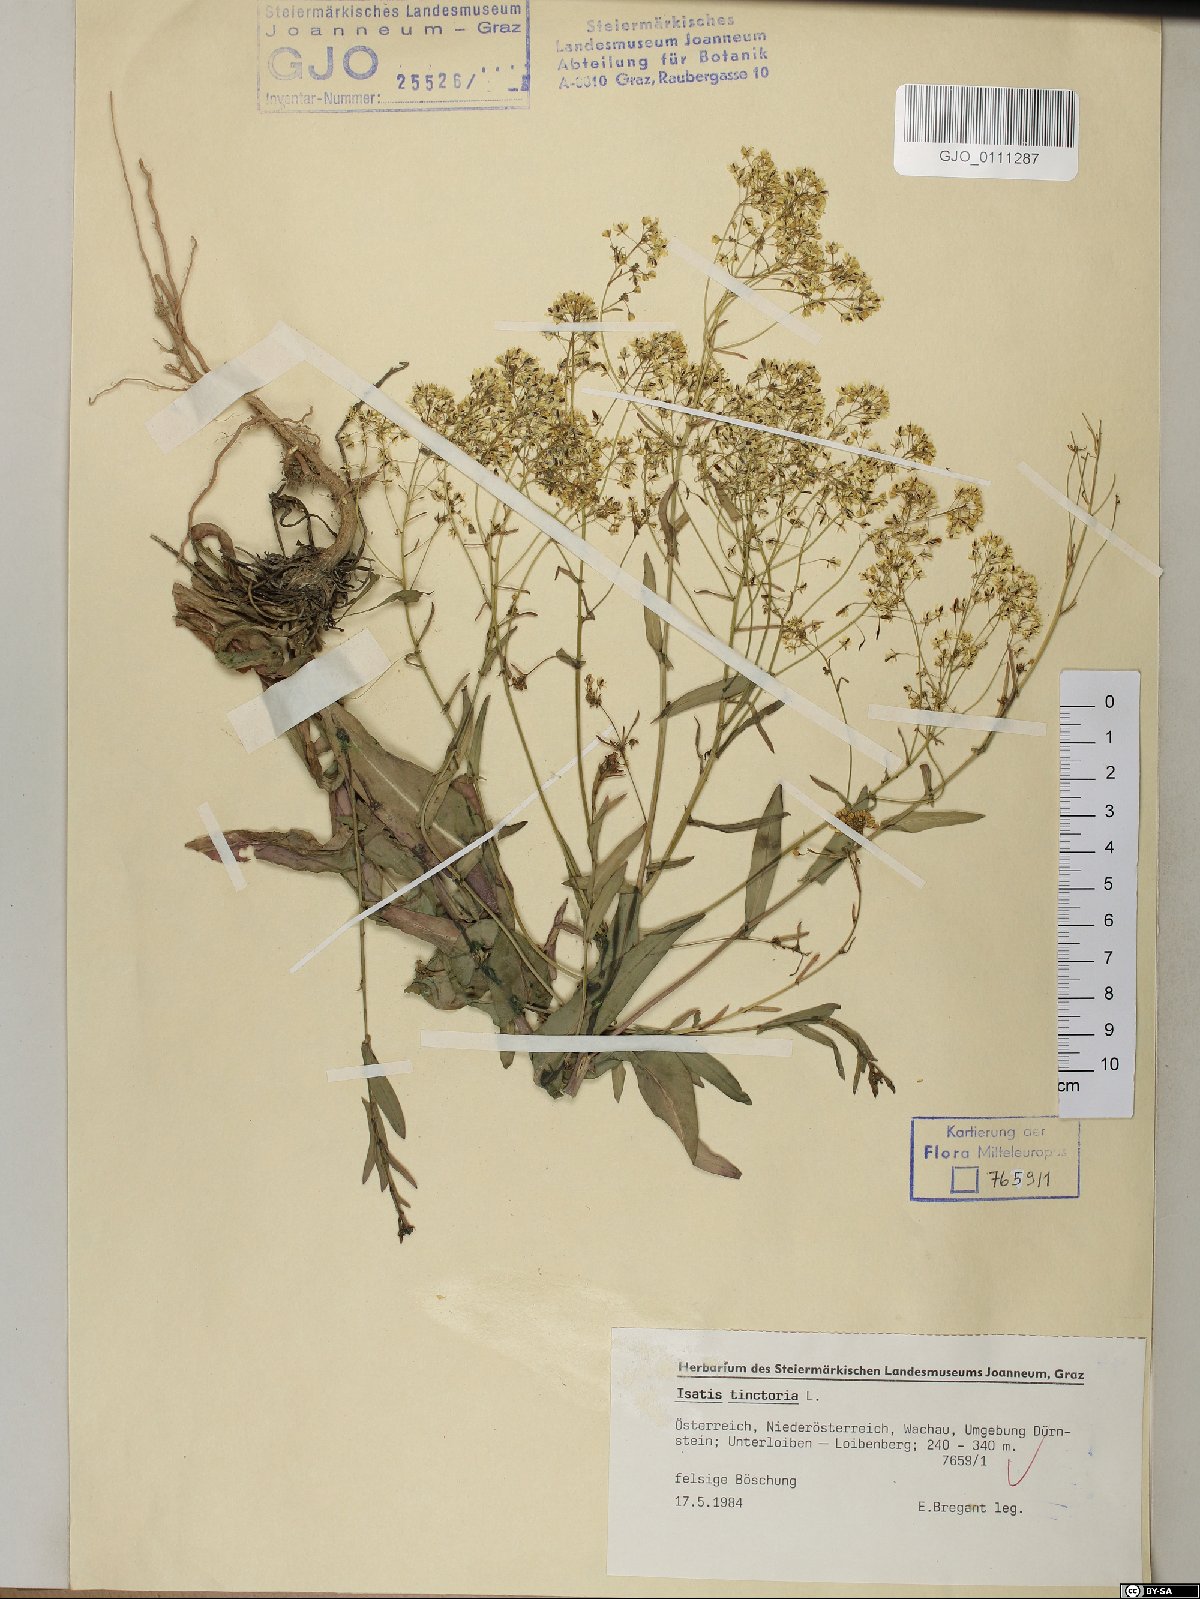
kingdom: Plantae
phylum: Tracheophyta
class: Magnoliopsida
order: Brassicales
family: Brassicaceae
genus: Isatis
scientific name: Isatis tinctoria
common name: Woad
